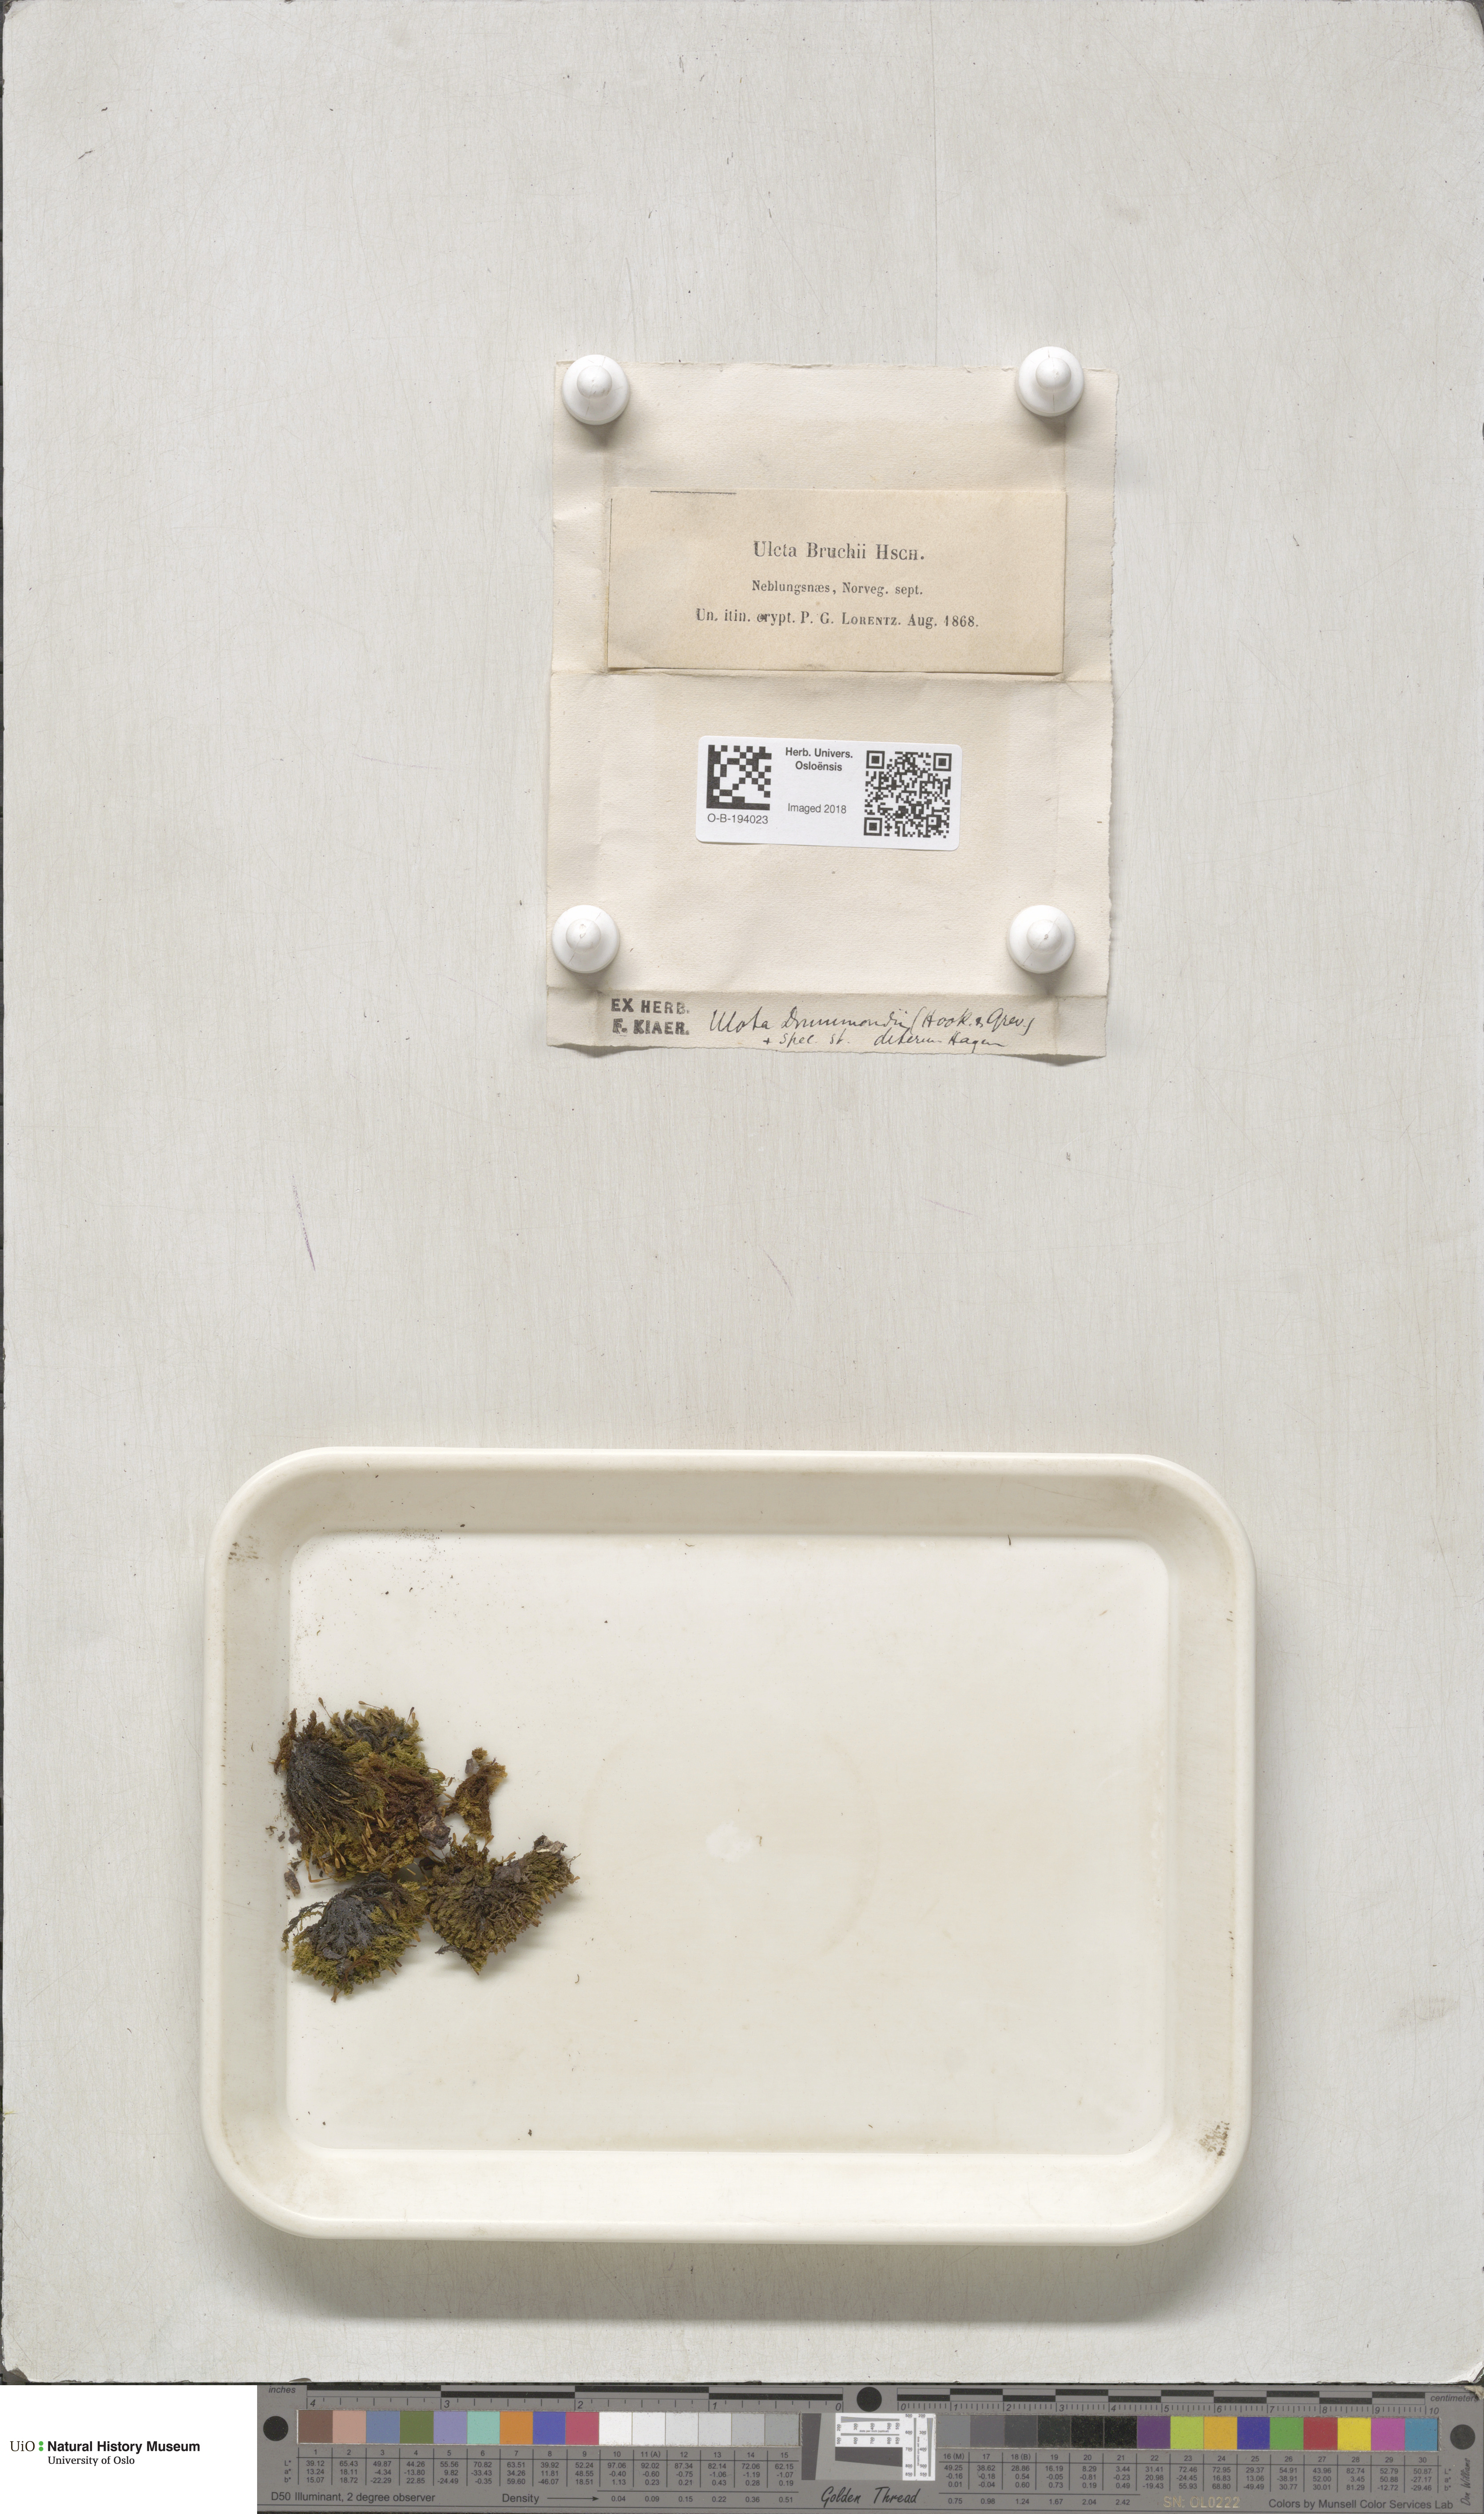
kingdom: Plantae
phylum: Bryophyta
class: Bryopsida
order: Orthotrichales
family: Orthotrichaceae
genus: Ulota
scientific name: Ulota drummondii
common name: Drummond's pincushion moss
